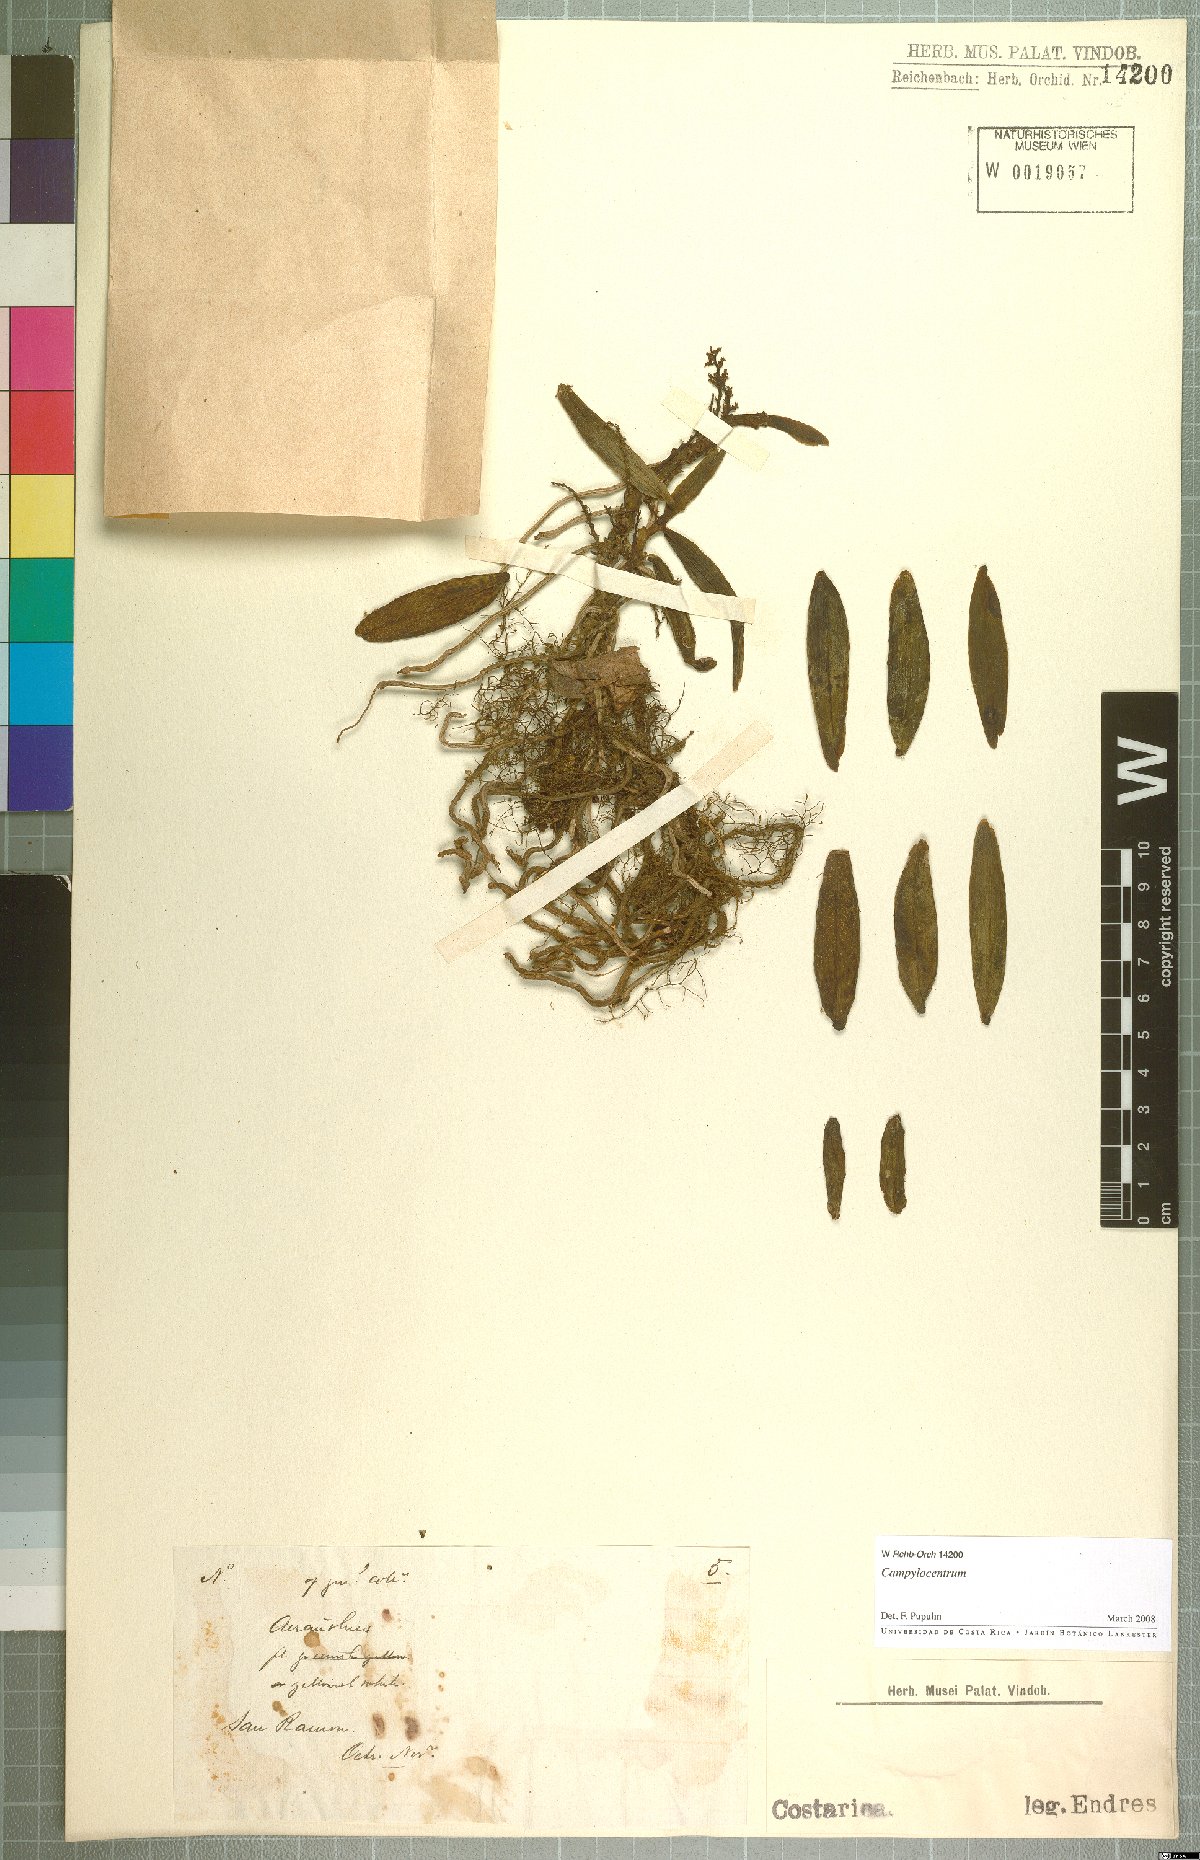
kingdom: Plantae
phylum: Tracheophyta
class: Liliopsida
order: Asparagales
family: Orchidaceae
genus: Campylocentrum
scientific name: Campylocentrum
